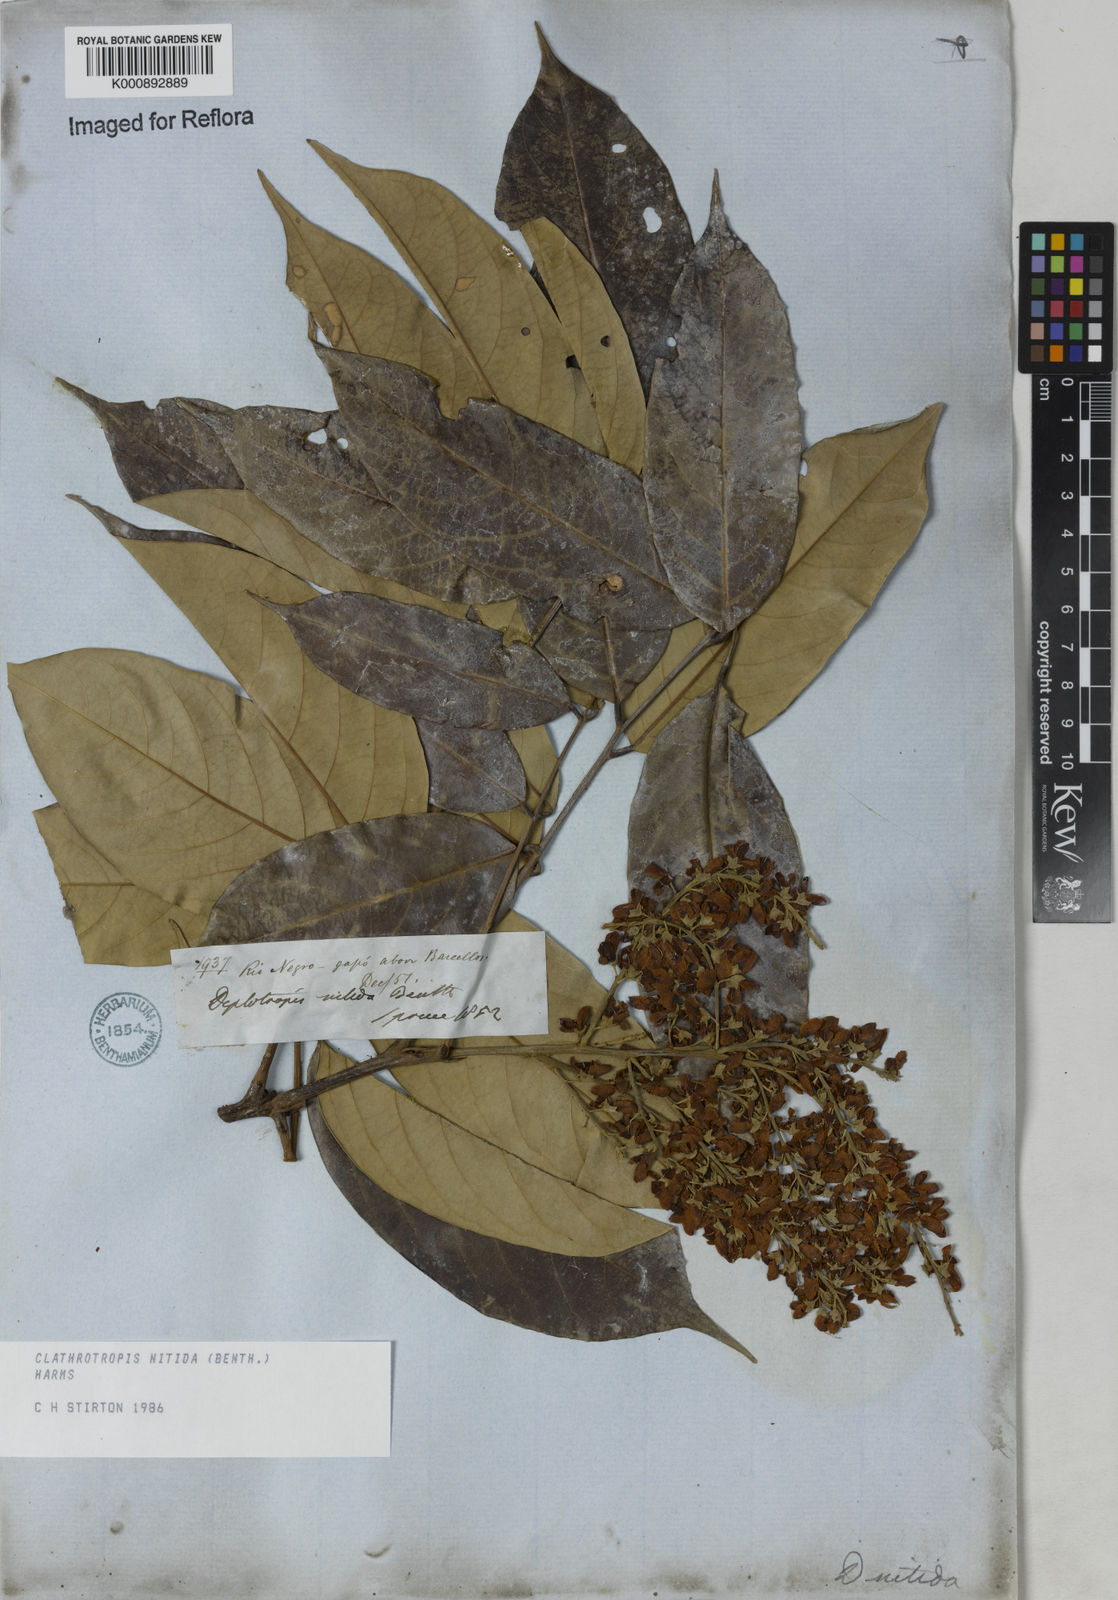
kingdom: Plantae
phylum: Tracheophyta
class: Magnoliopsida
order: Fabales
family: Fabaceae
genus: Clathrotropis
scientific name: Clathrotropis nitida
